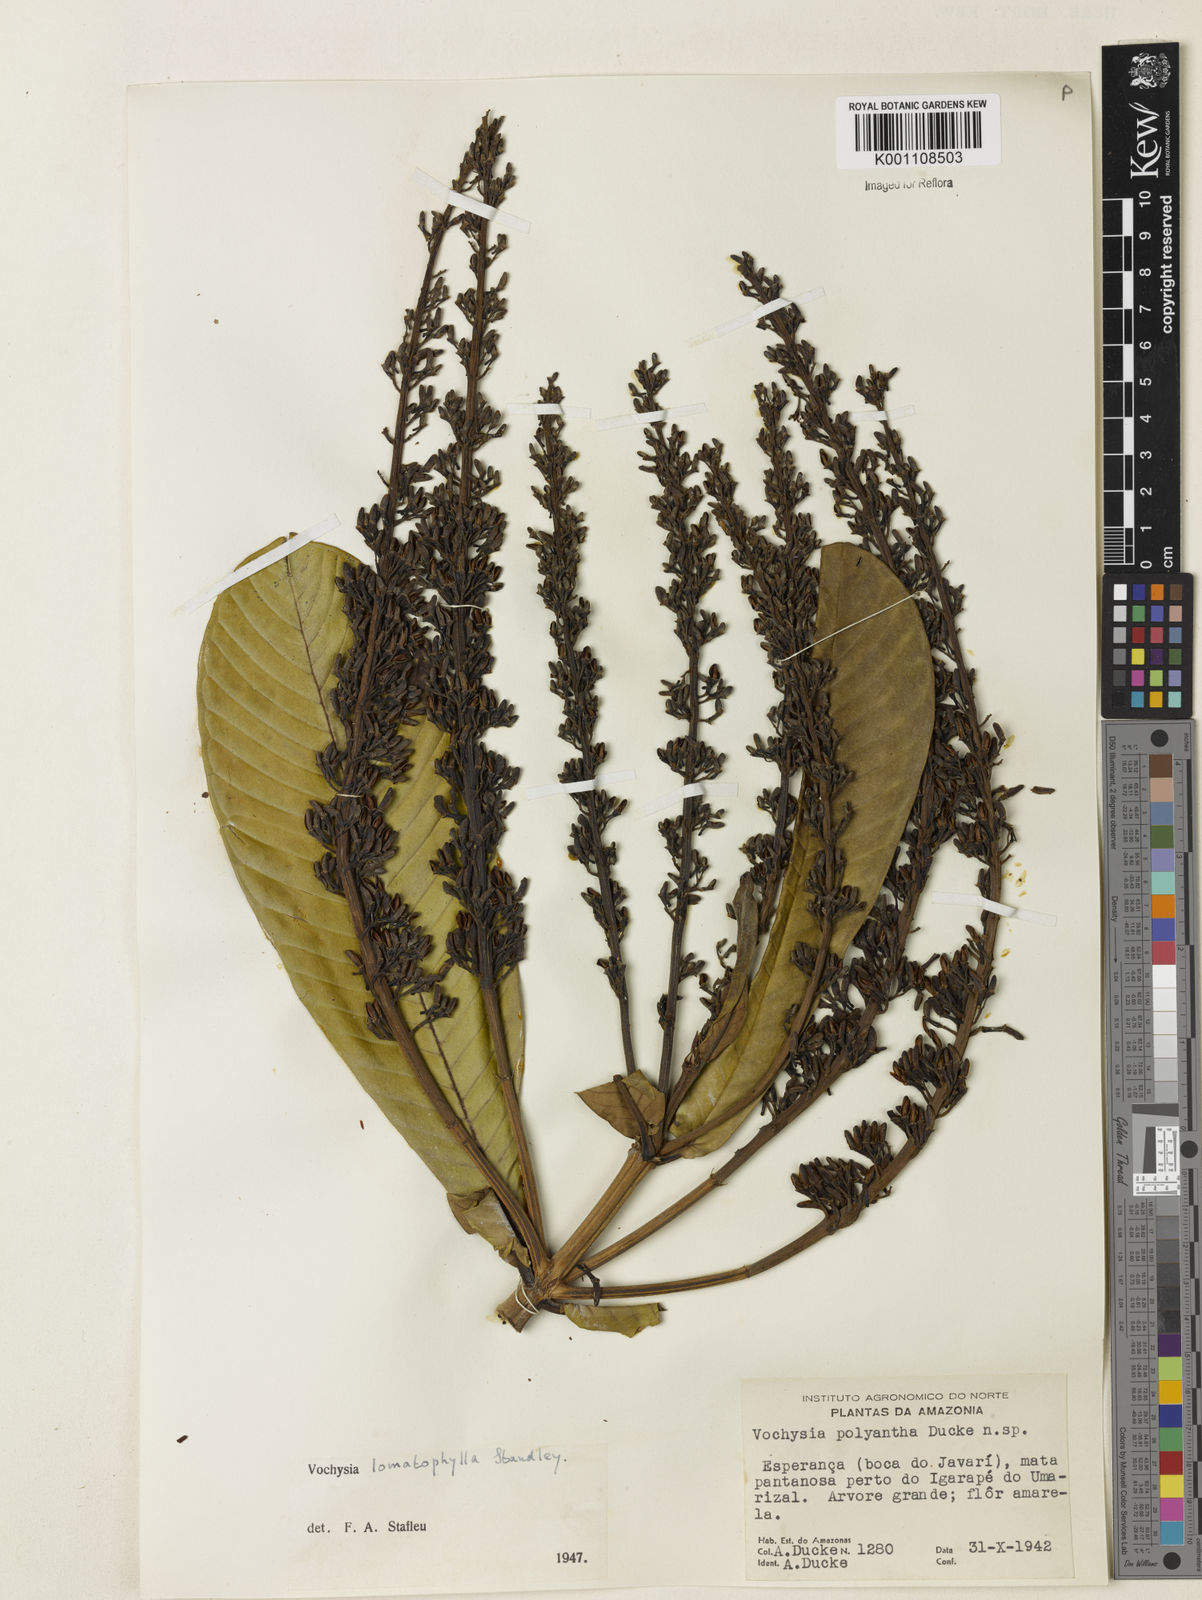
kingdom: Plantae
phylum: Tracheophyta
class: Magnoliopsida
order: Myrtales
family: Vochysiaceae
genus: Vochysia
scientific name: Vochysia lomatophylla
